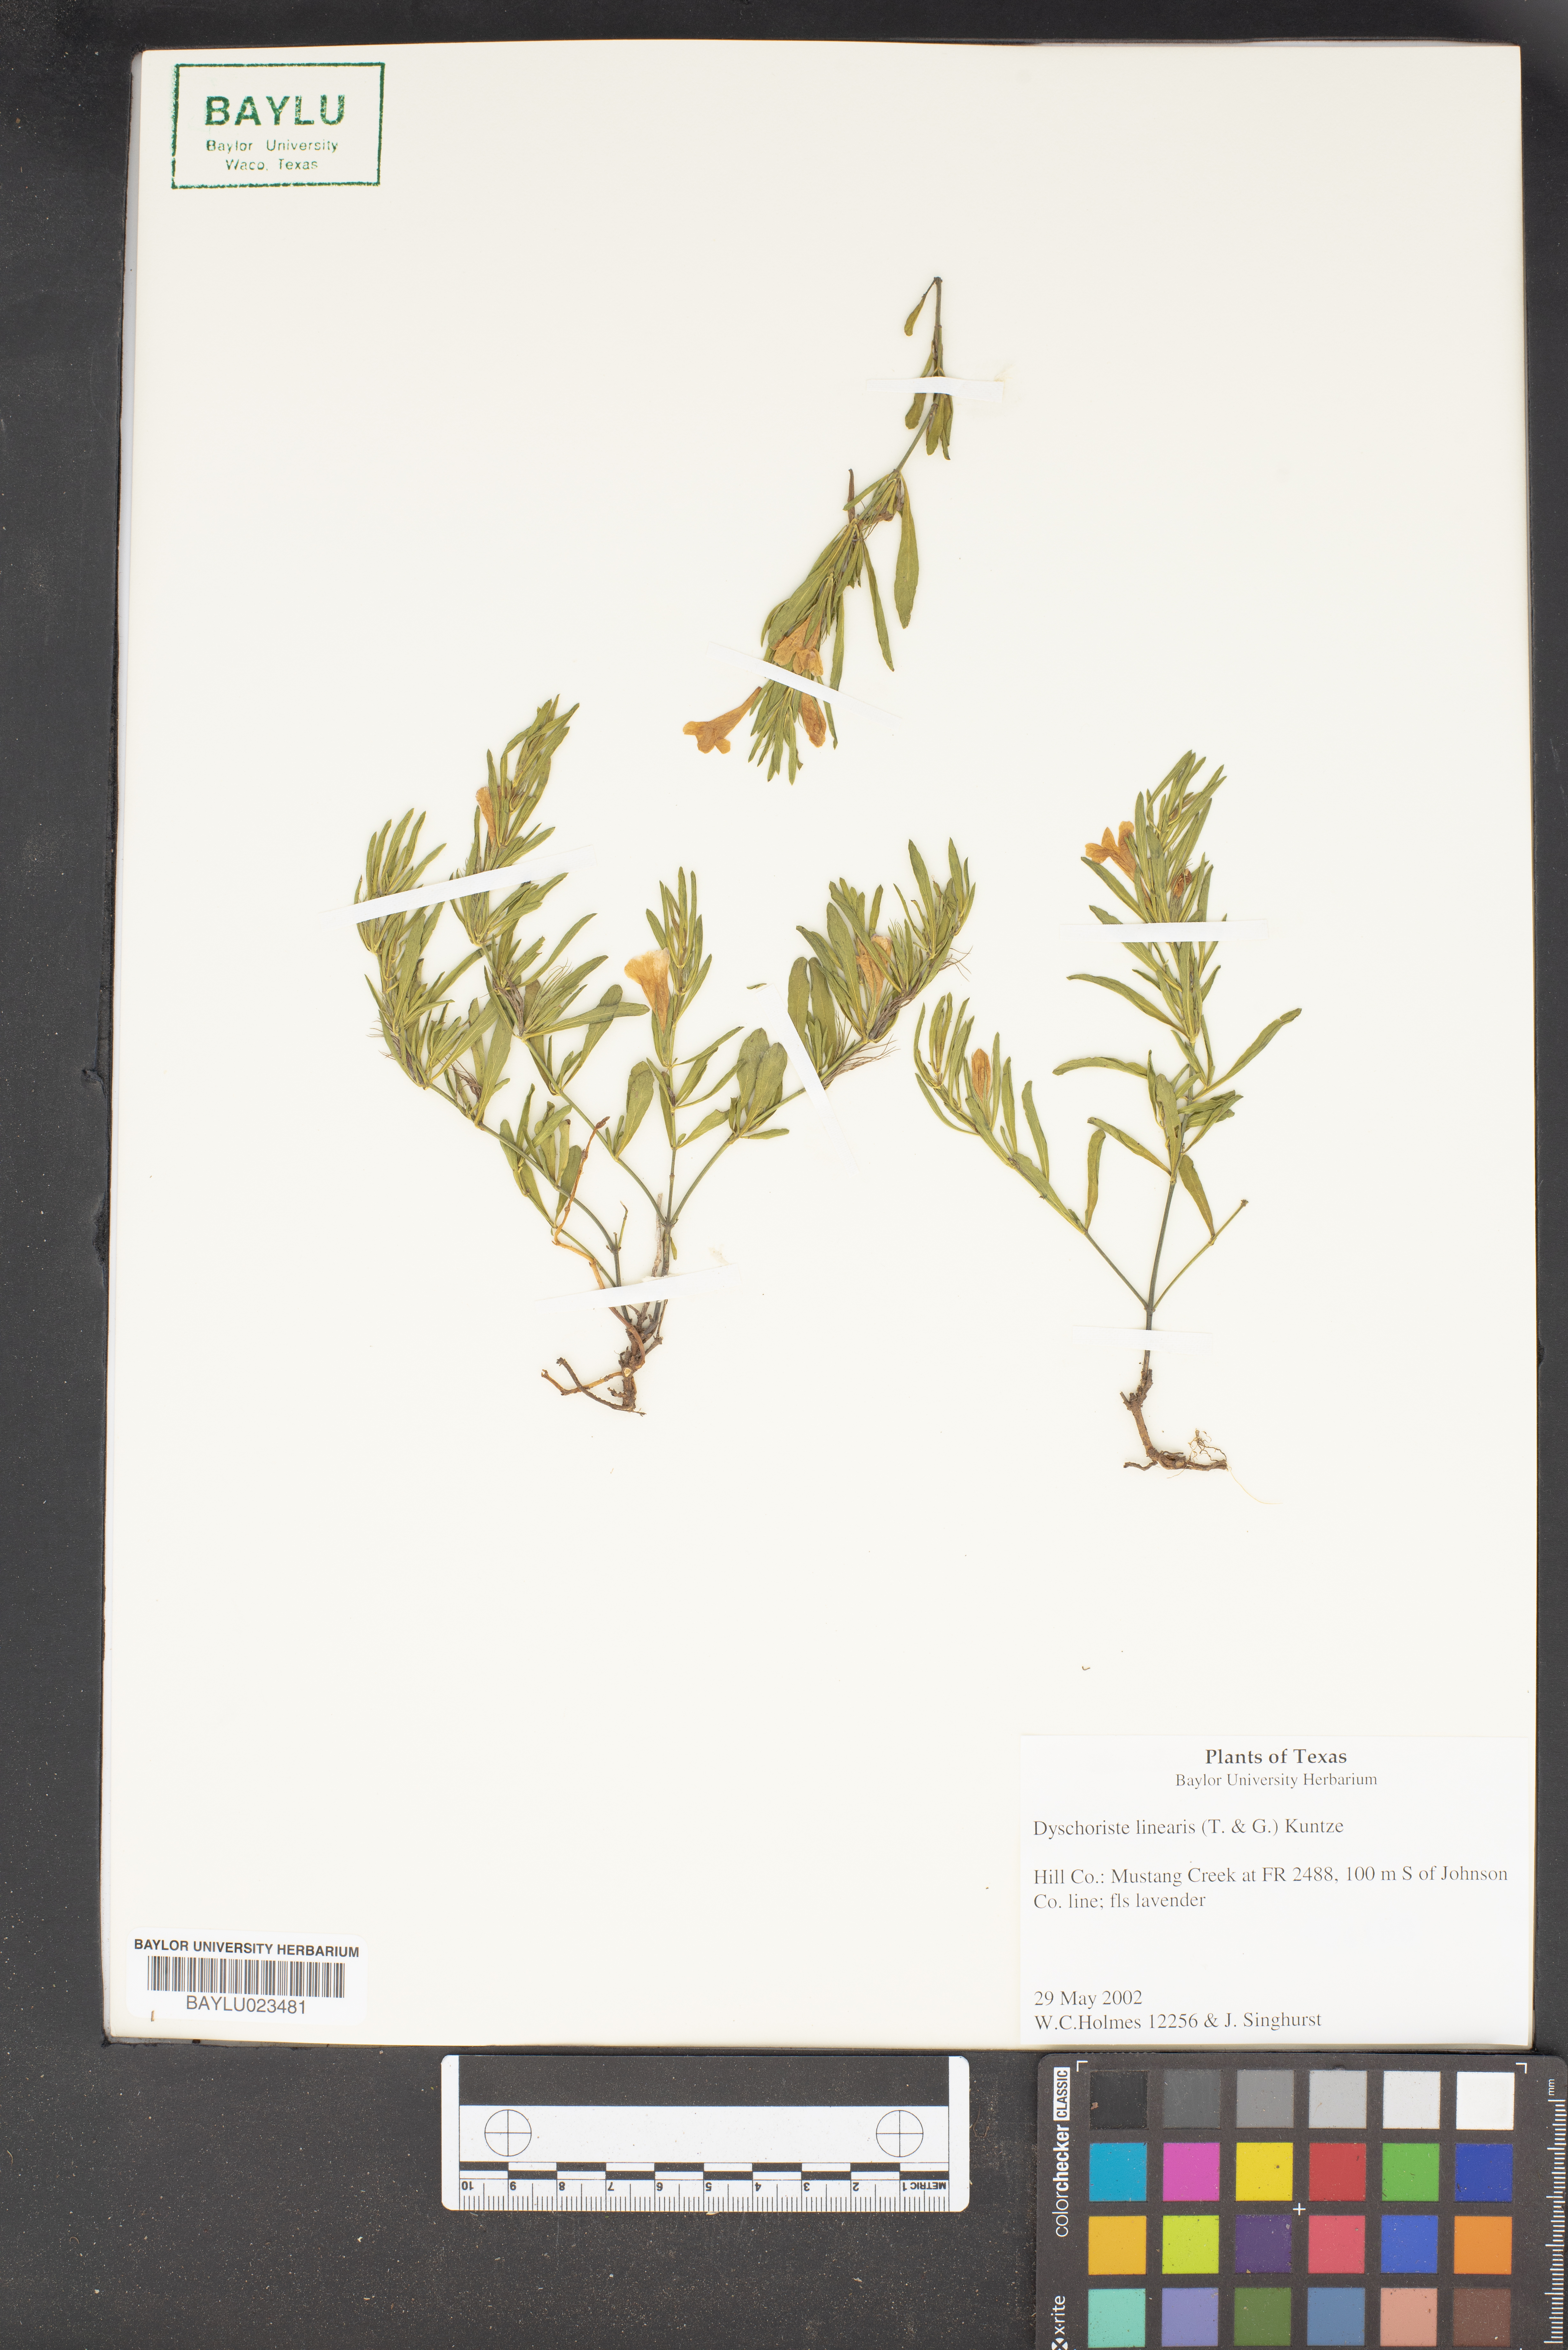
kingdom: Plantae
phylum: Tracheophyta
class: Magnoliopsida
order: Lamiales
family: Acanthaceae
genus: Dyschoriste
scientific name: Dyschoriste linearis
